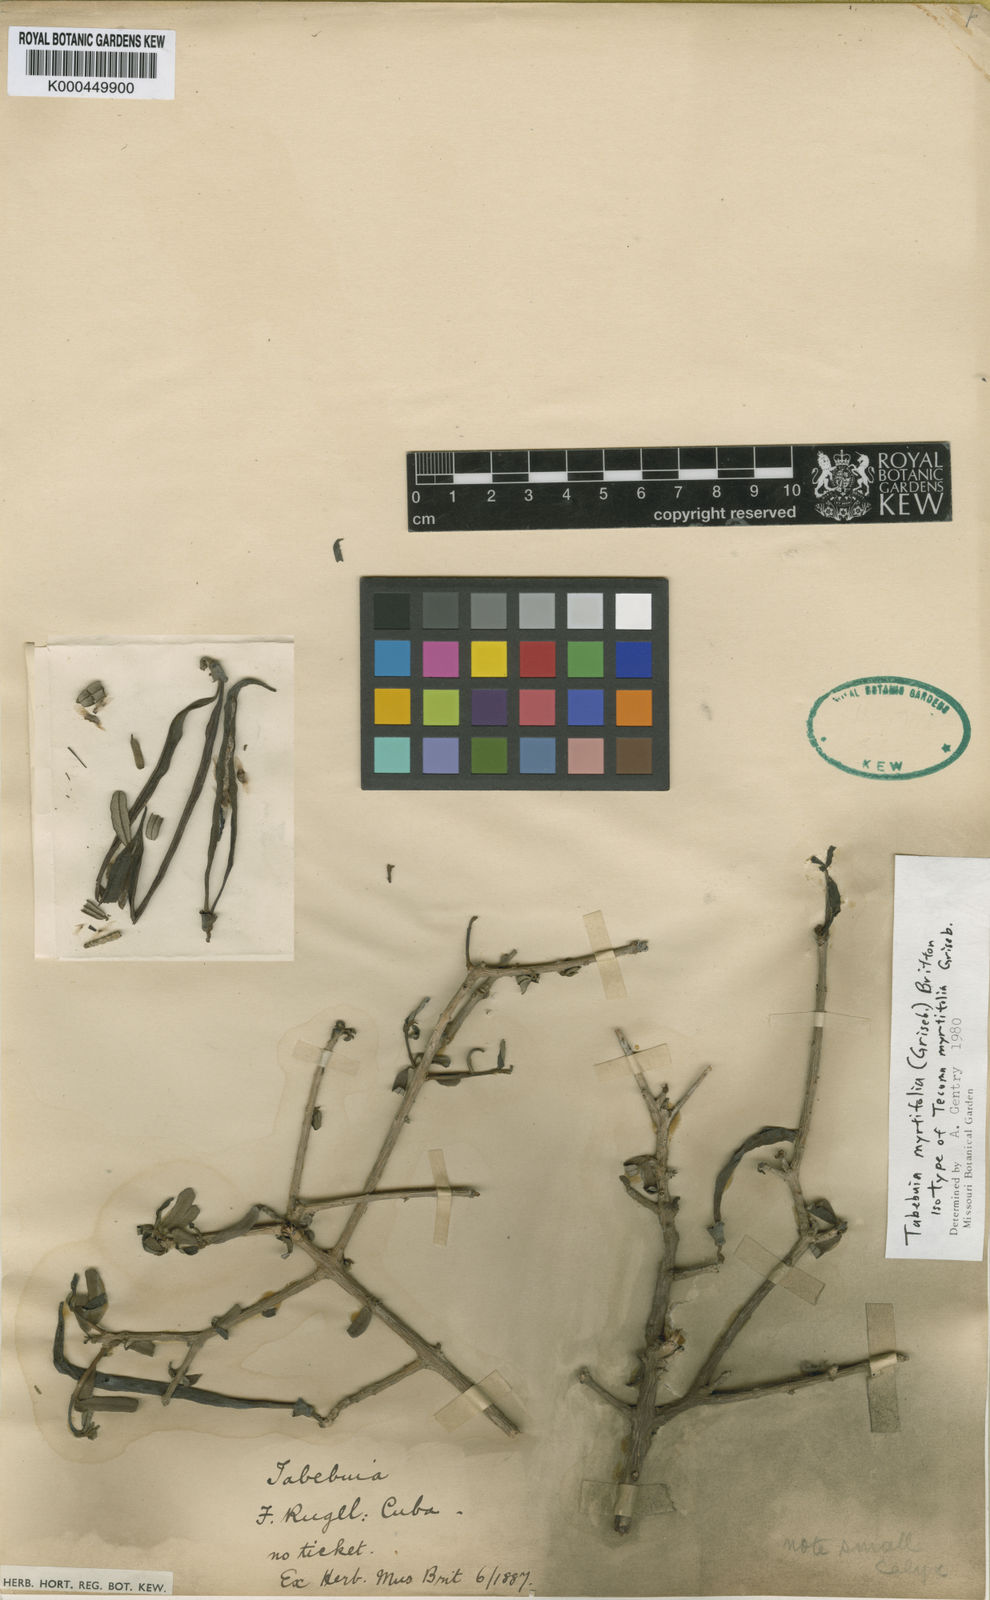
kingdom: Plantae
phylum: Tracheophyta
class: Magnoliopsida
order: Lamiales
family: Bignoniaceae
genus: Tabebuia
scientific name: Tabebuia myrtifolia
